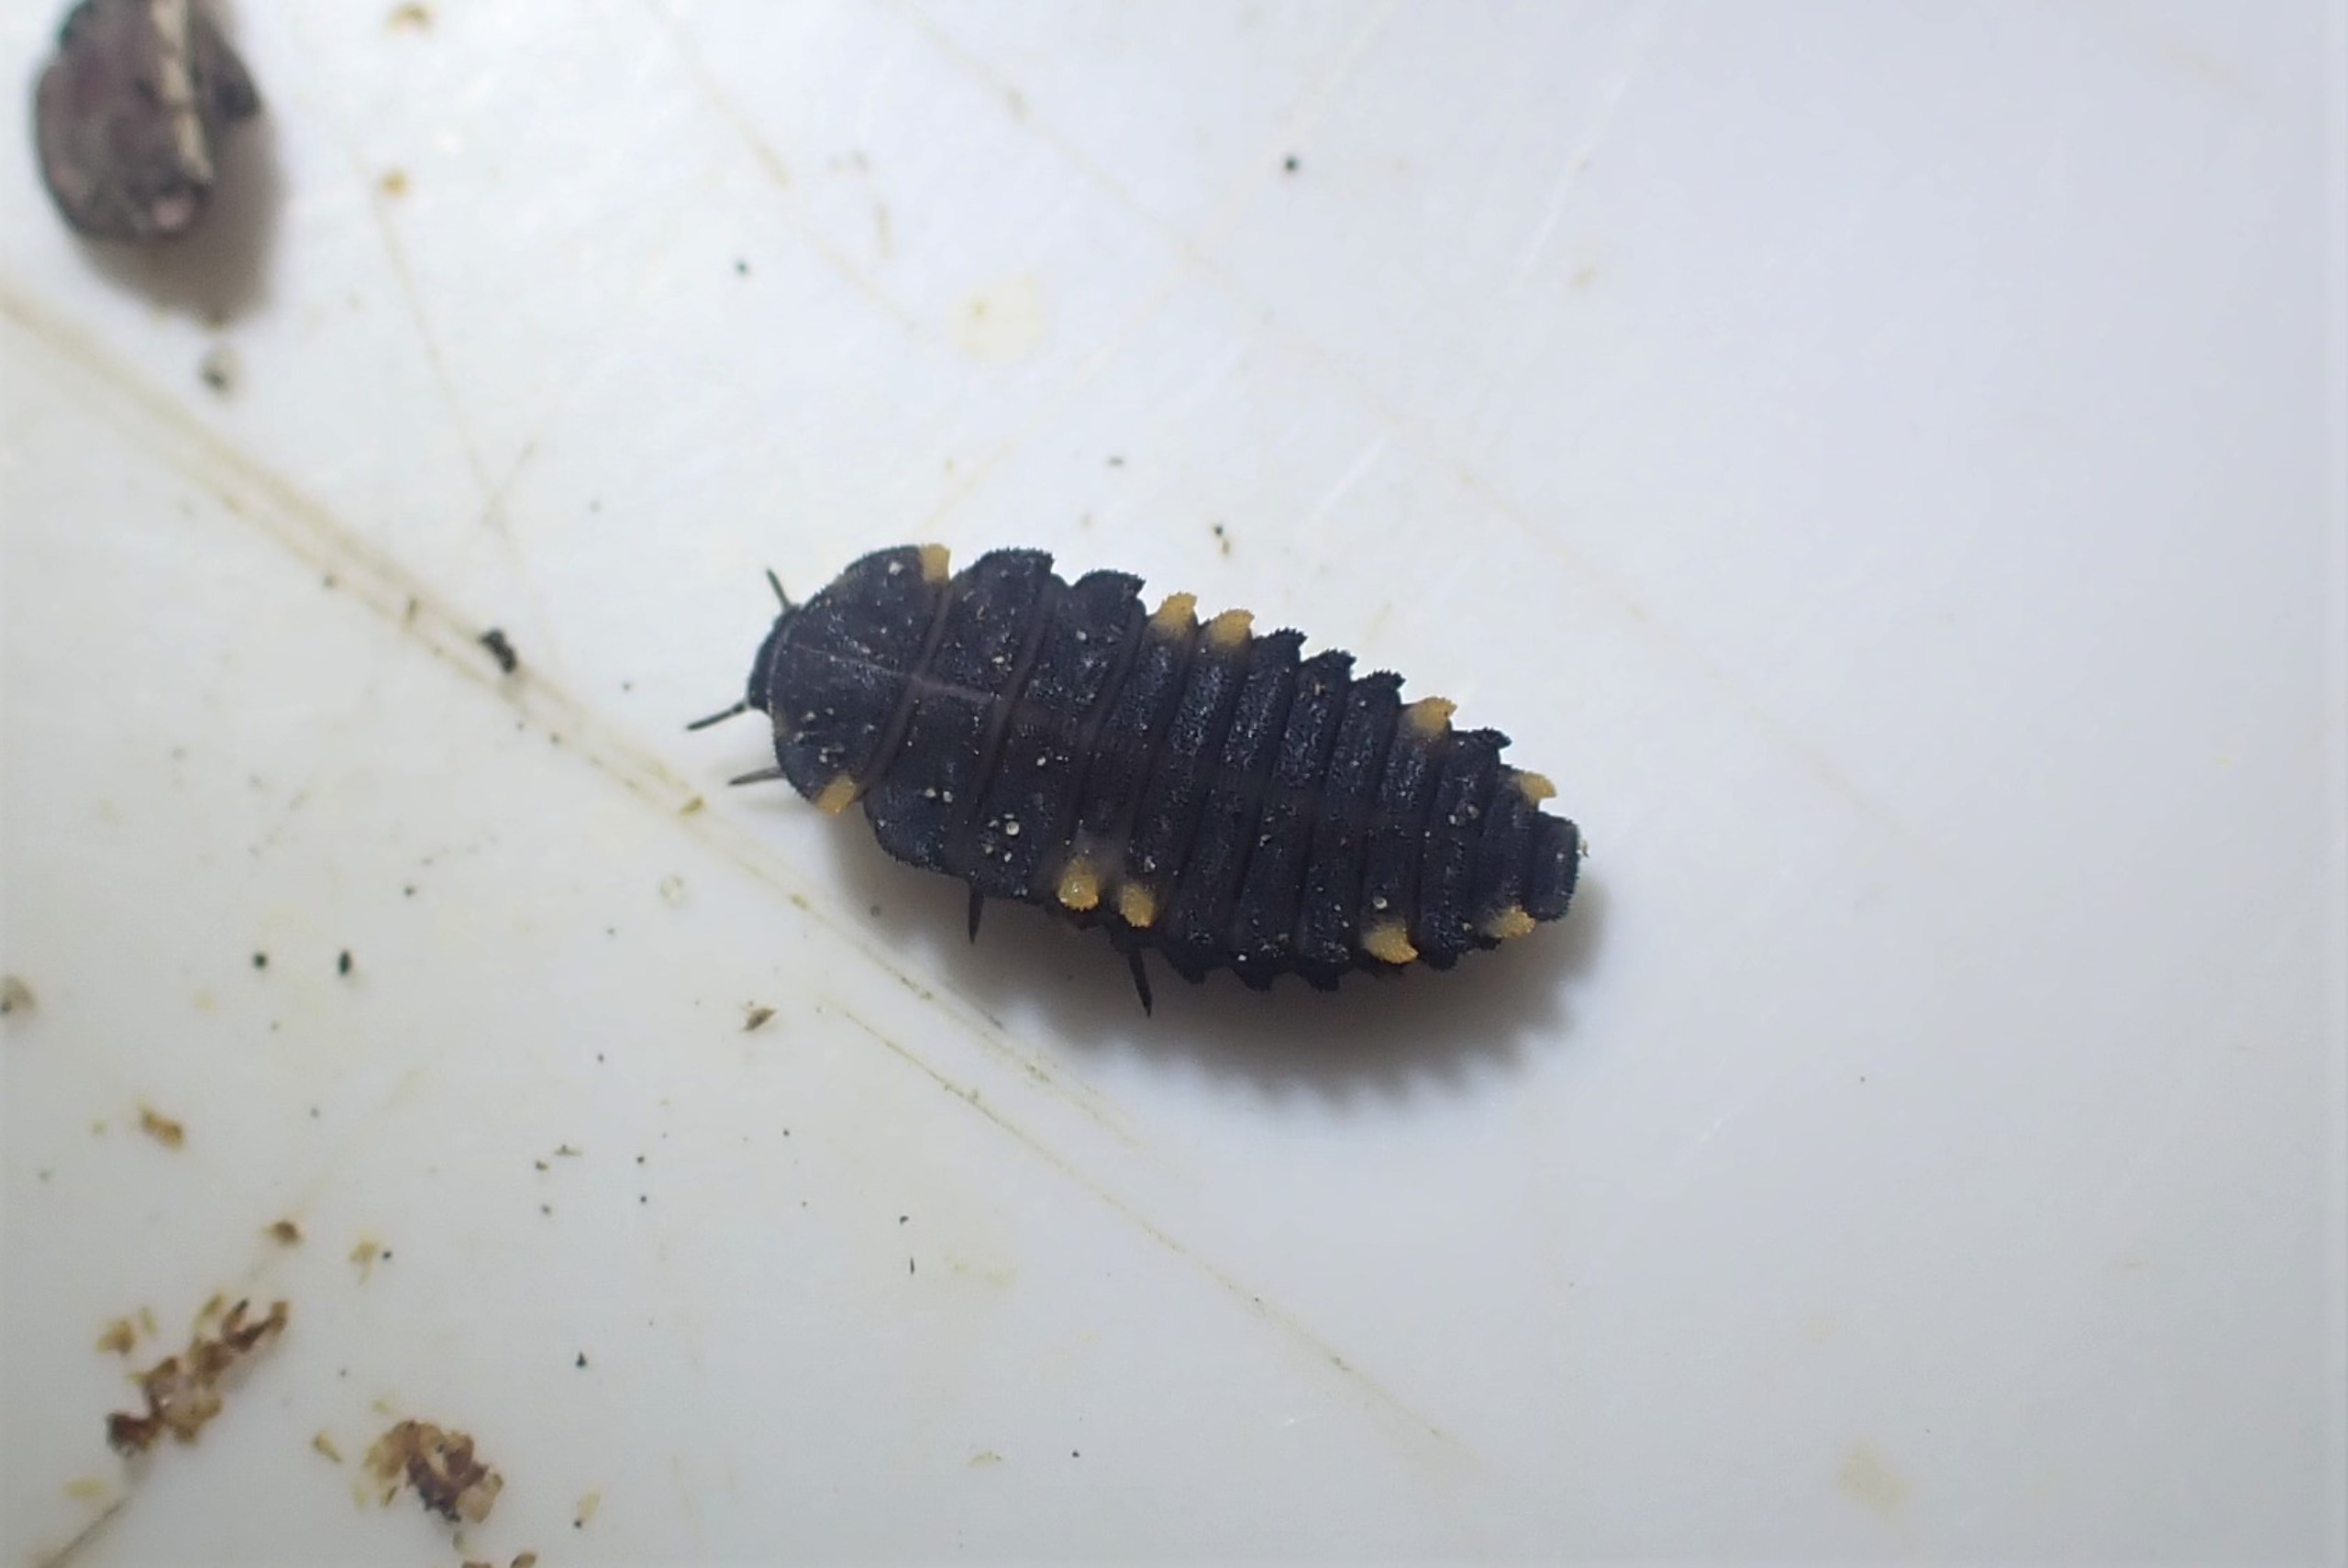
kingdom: Animalia
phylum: Arthropoda
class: Insecta
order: Coleoptera
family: Endomychidae
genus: Endomychus
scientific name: Endomychus coccineus
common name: Skarlagensvampehøne
